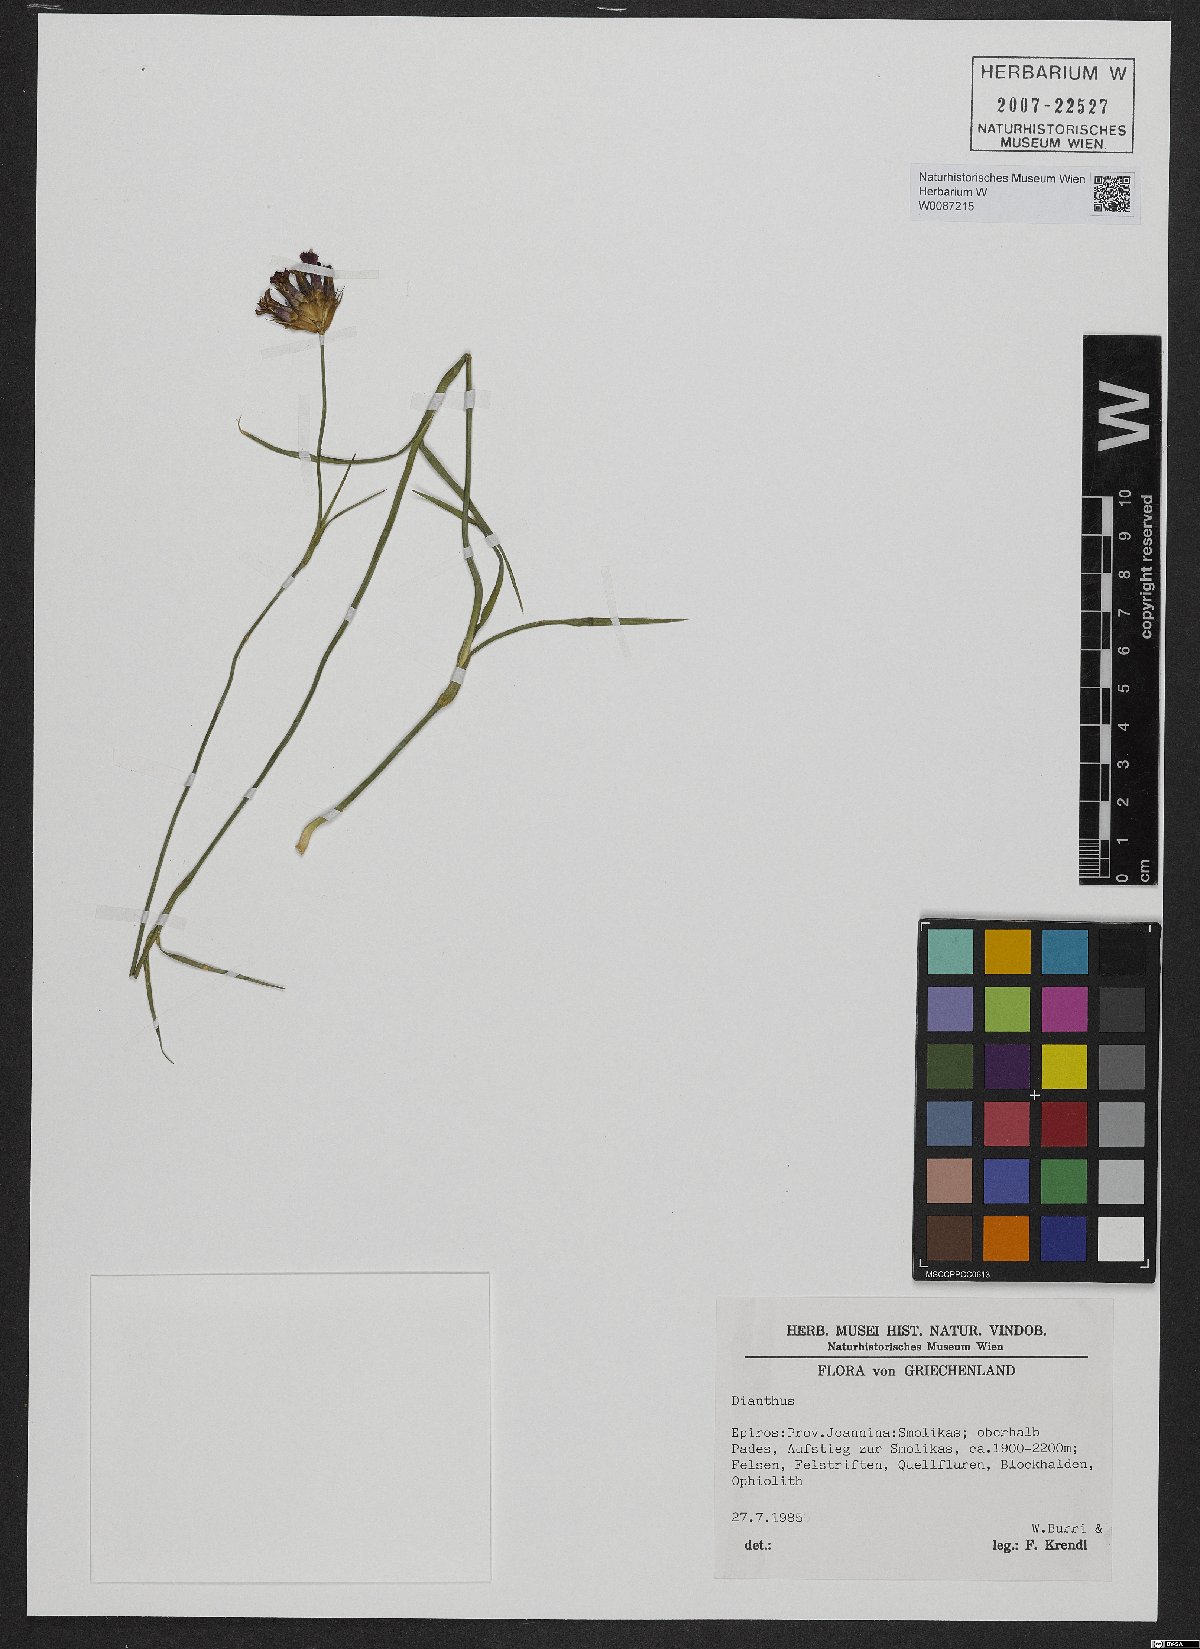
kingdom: Plantae
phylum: Tracheophyta
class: Magnoliopsida
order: Caryophyllales
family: Caryophyllaceae
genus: Dianthus
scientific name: Dianthus
